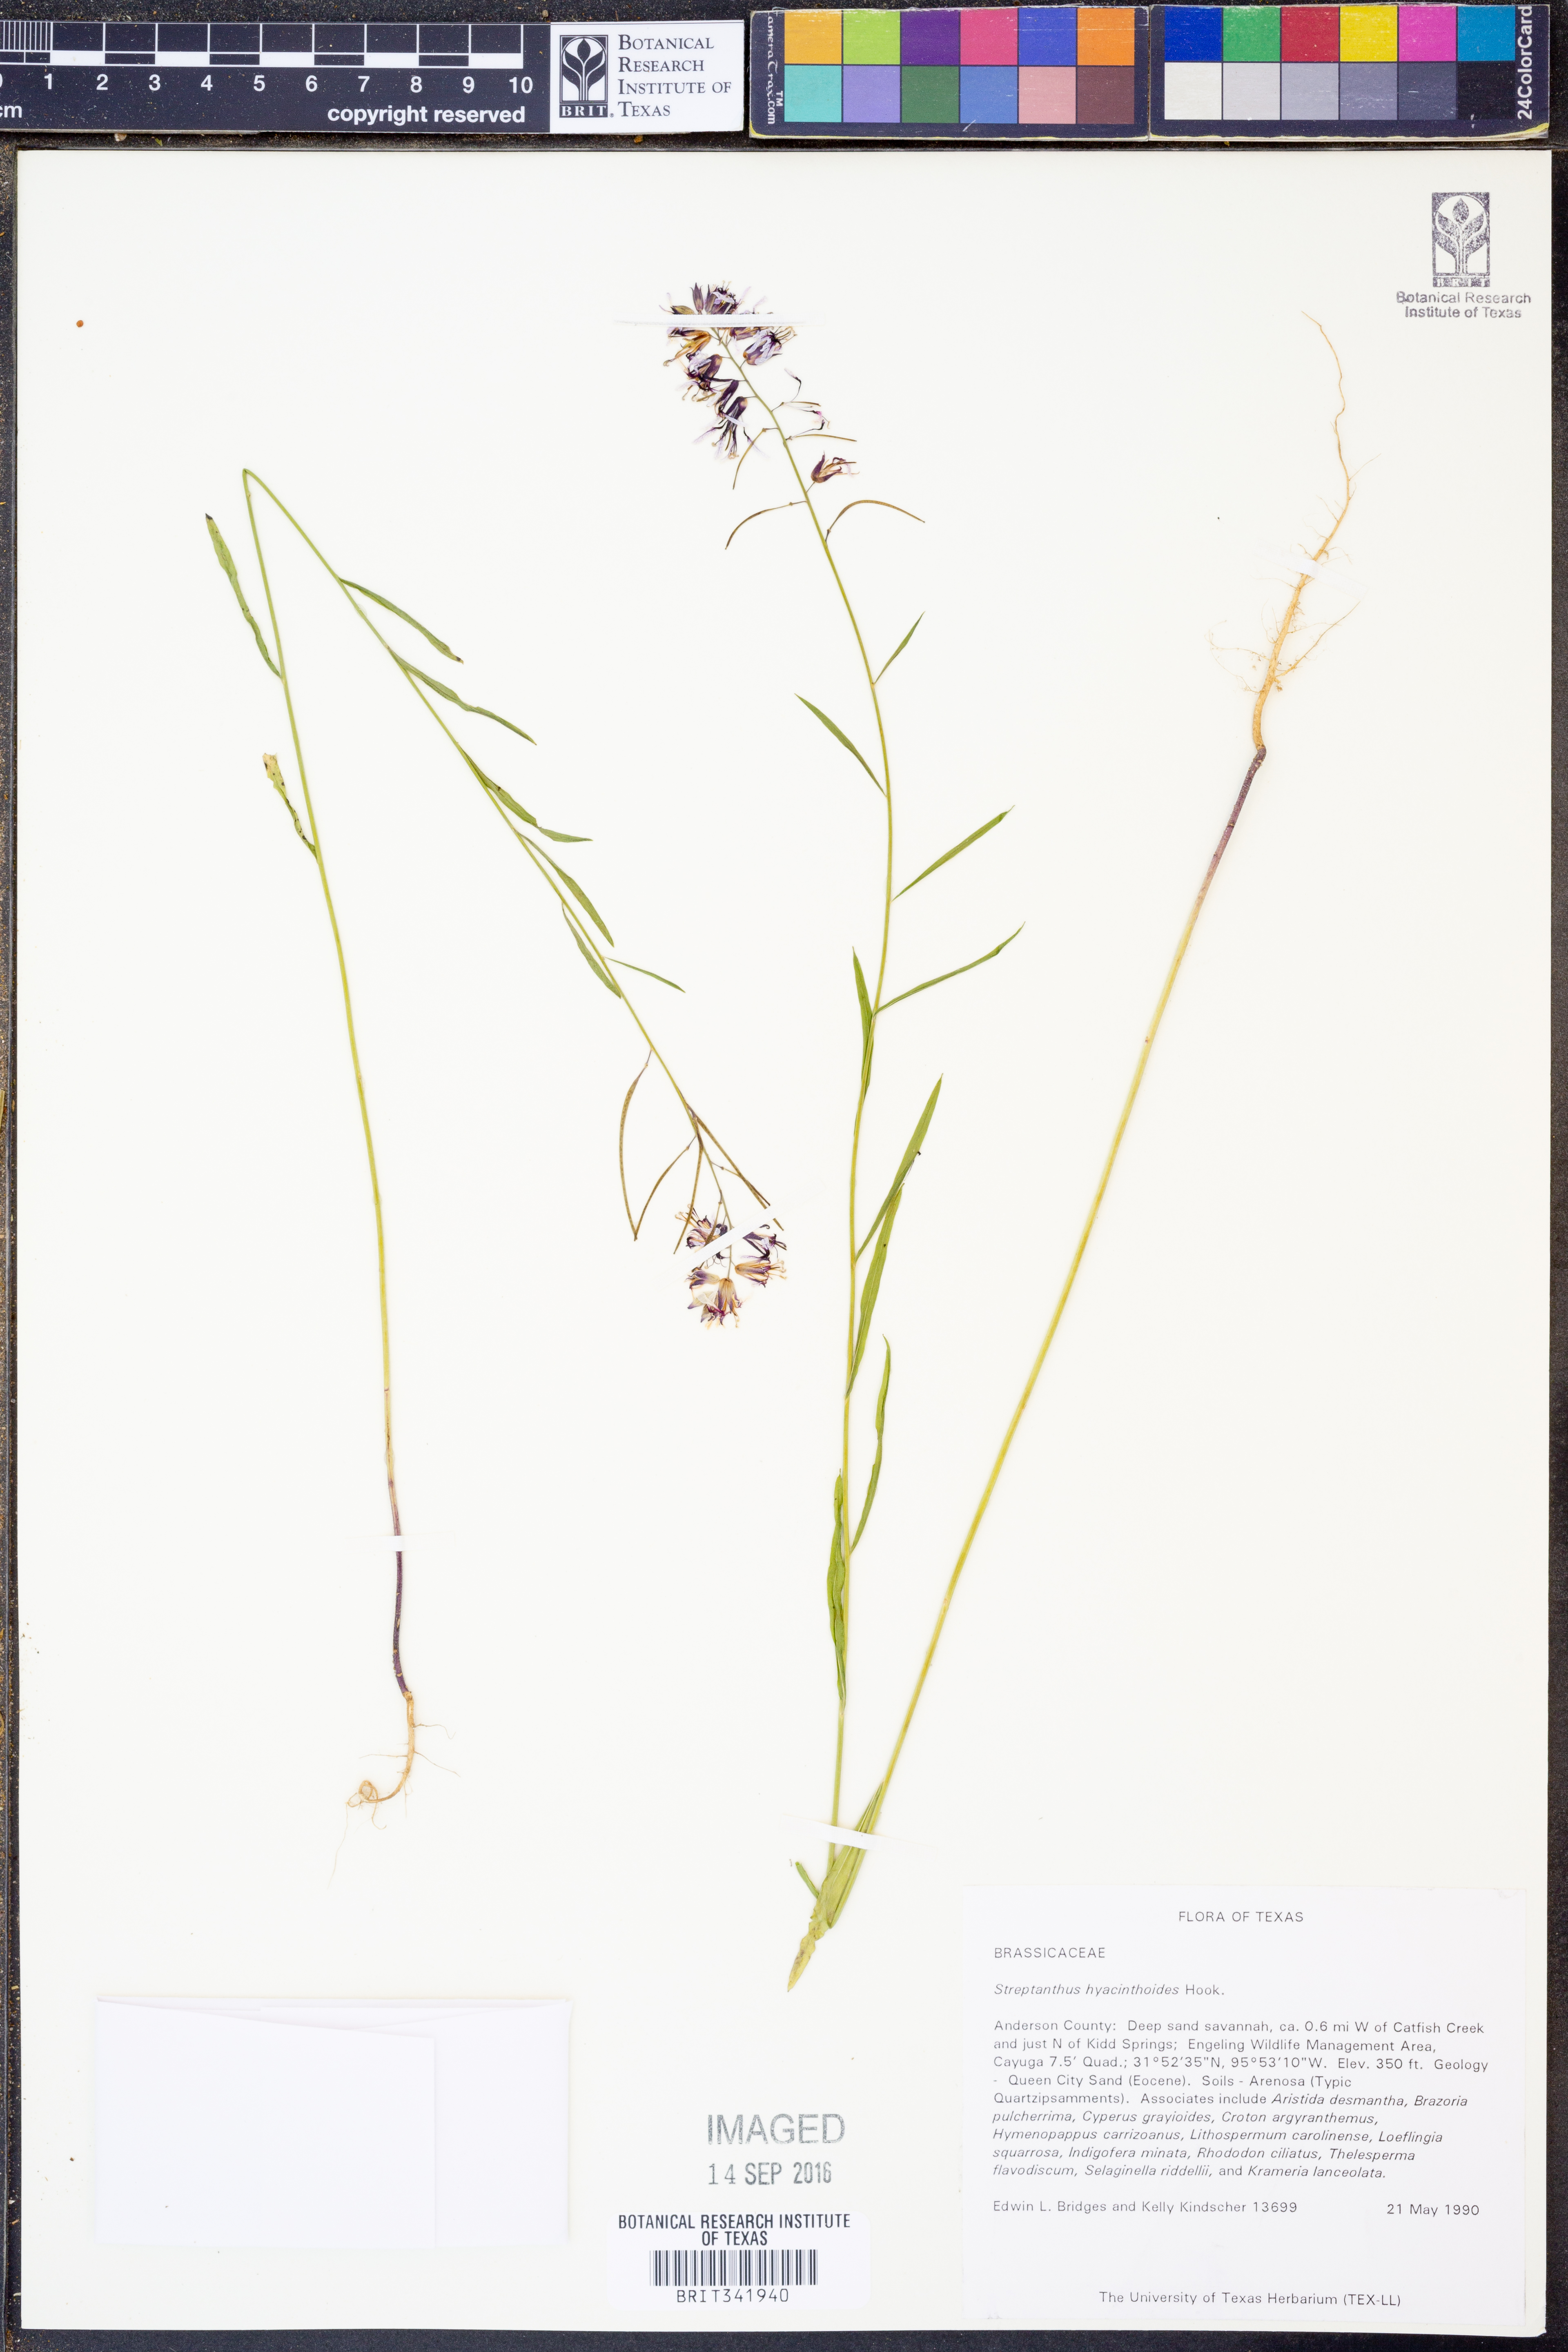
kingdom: Plantae
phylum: Tracheophyta
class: Magnoliopsida
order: Brassicales
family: Brassicaceae
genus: Streptanthus
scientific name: Streptanthus hyacinthoides
